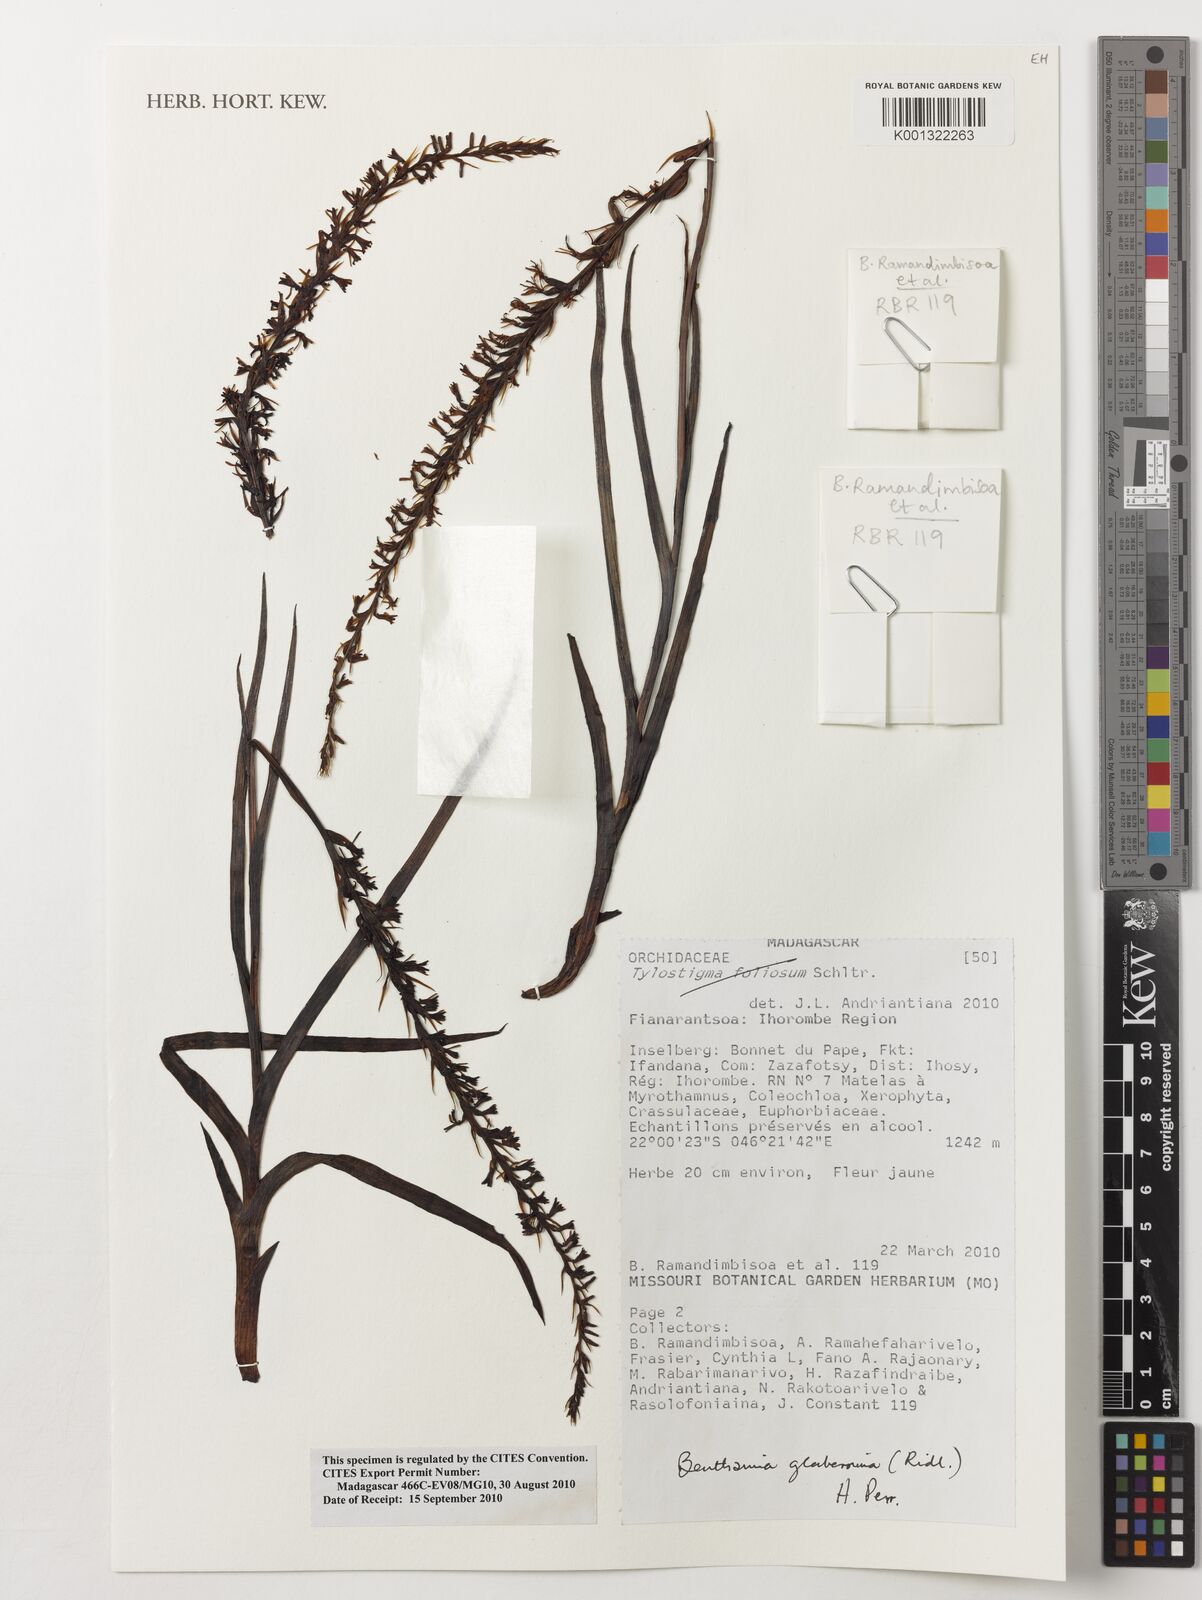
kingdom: Plantae
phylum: Tracheophyta
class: Liliopsida
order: Asparagales
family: Orchidaceae
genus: Benthamia
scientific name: Benthamia glaberrima
